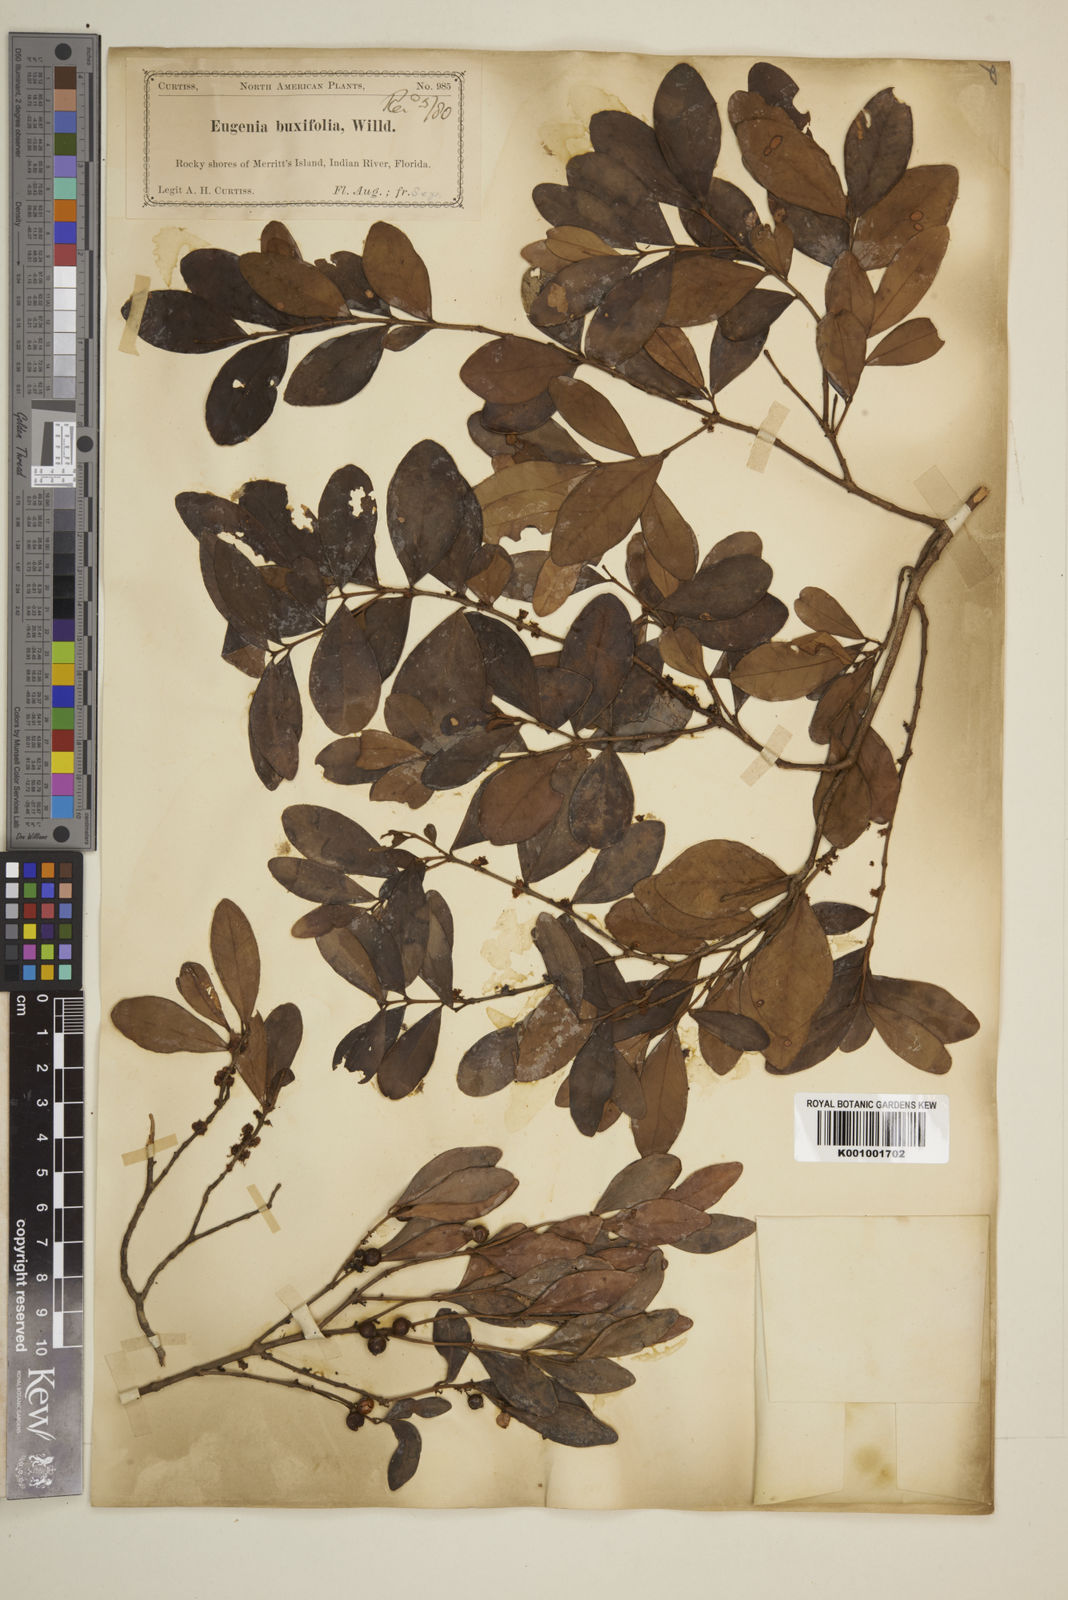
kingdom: Plantae
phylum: Tracheophyta
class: Magnoliopsida
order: Myrtales
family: Myrtaceae
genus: Eugenia
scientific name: Eugenia buxifolia
